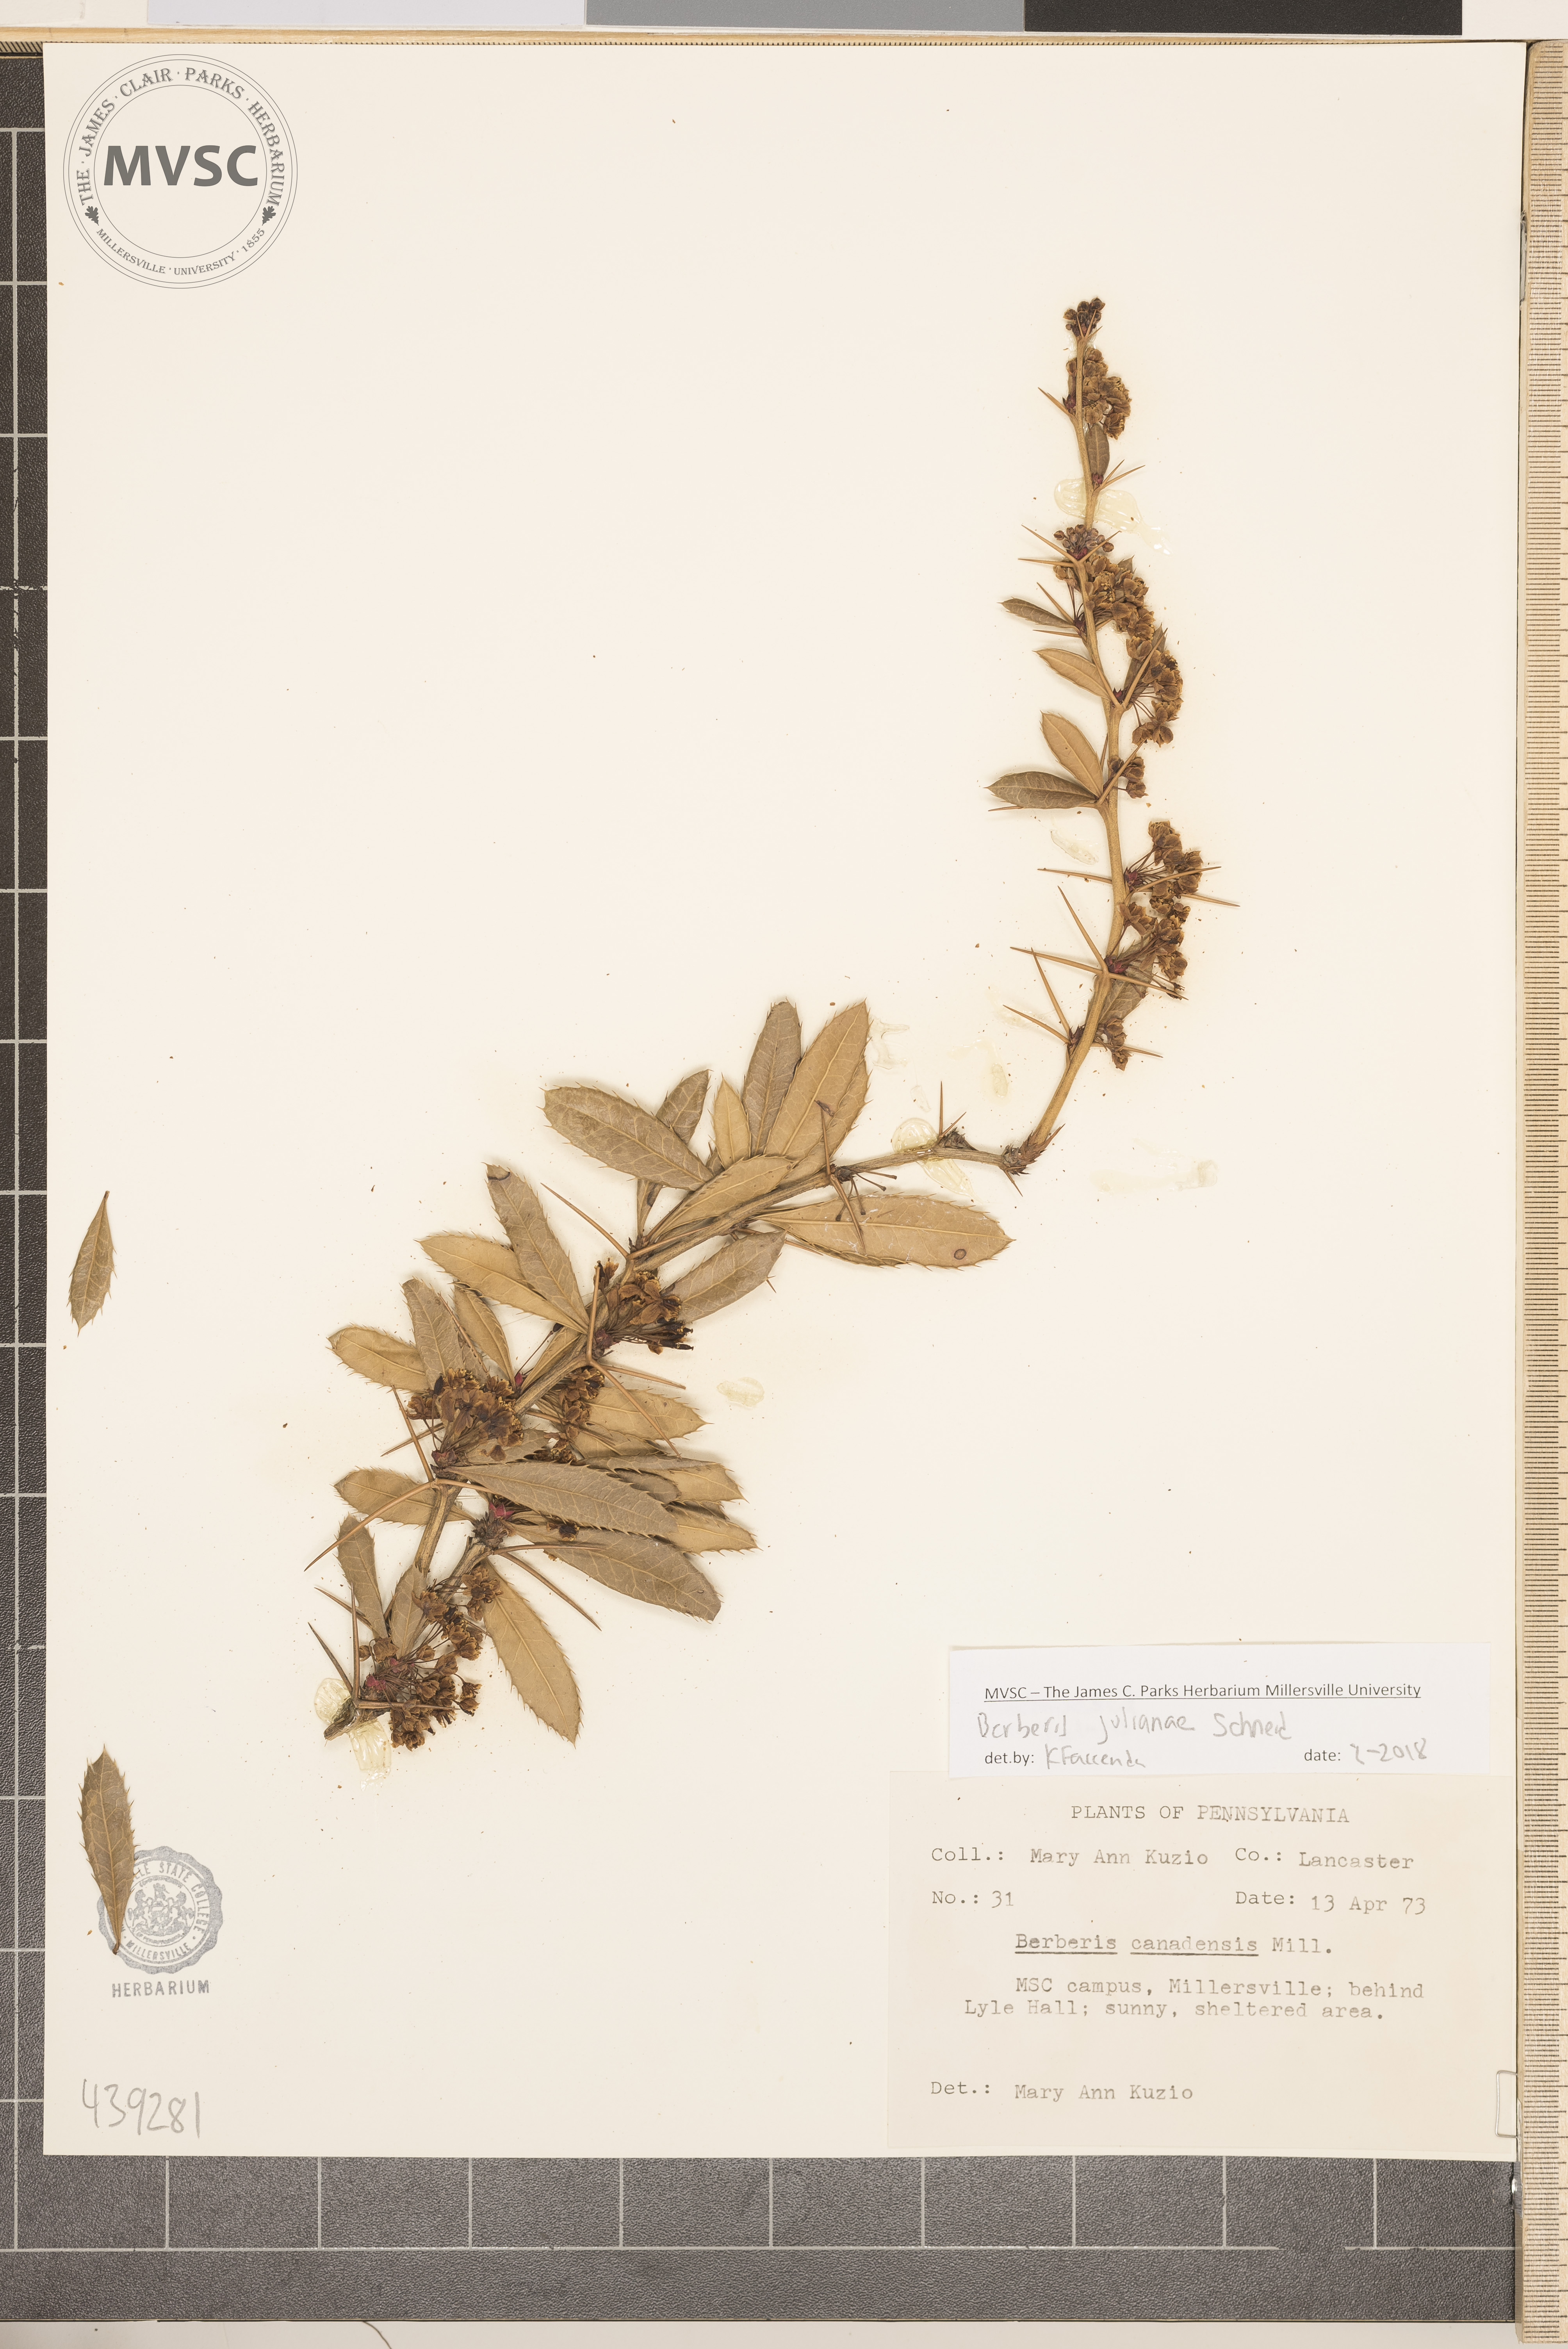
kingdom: Plantae
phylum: Tracheophyta
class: Magnoliopsida
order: Ranunculales
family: Berberidaceae
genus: Berberis
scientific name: Berberis julianae
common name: Wintergreen barberry
